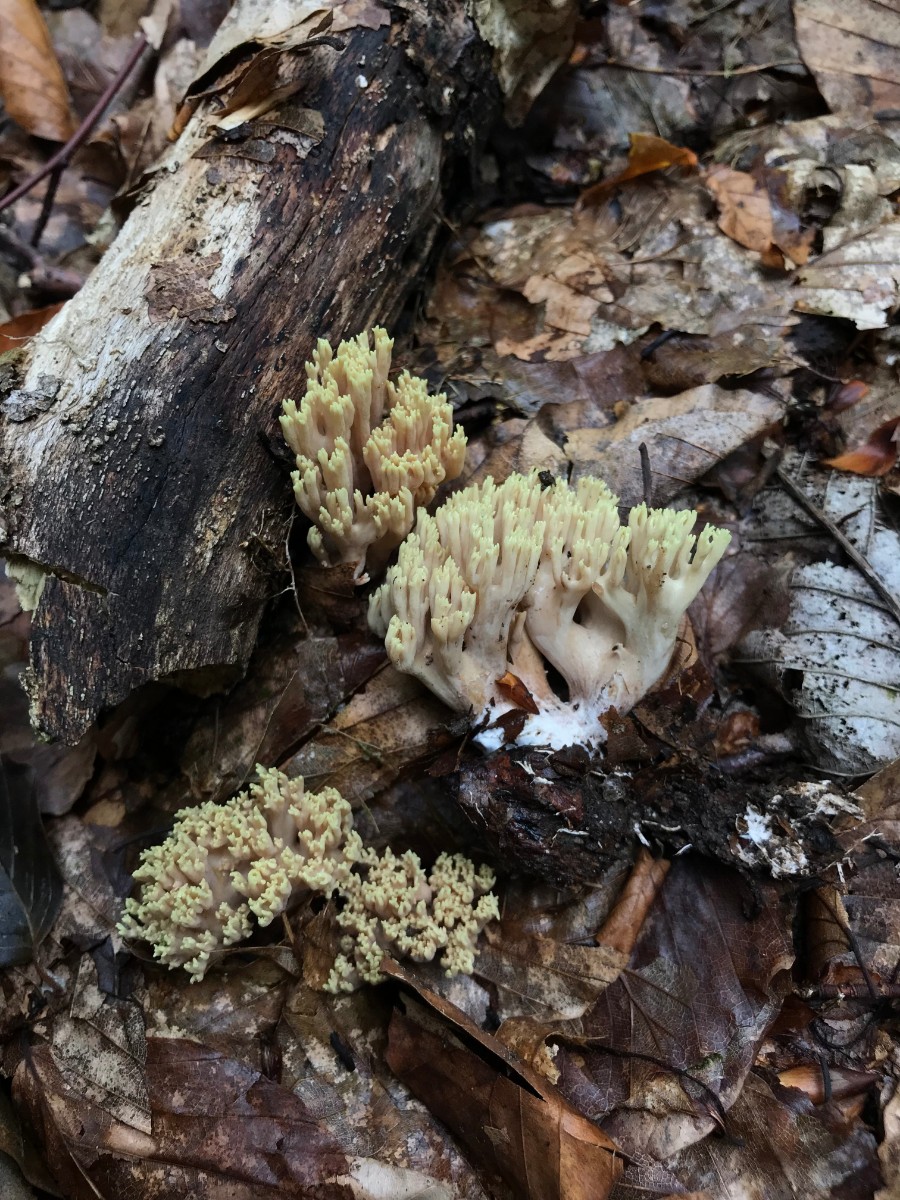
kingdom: Fungi
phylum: Basidiomycota
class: Agaricomycetes
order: Gomphales
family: Gomphaceae
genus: Ramaria
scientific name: Ramaria stricta
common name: rank koralsvamp
